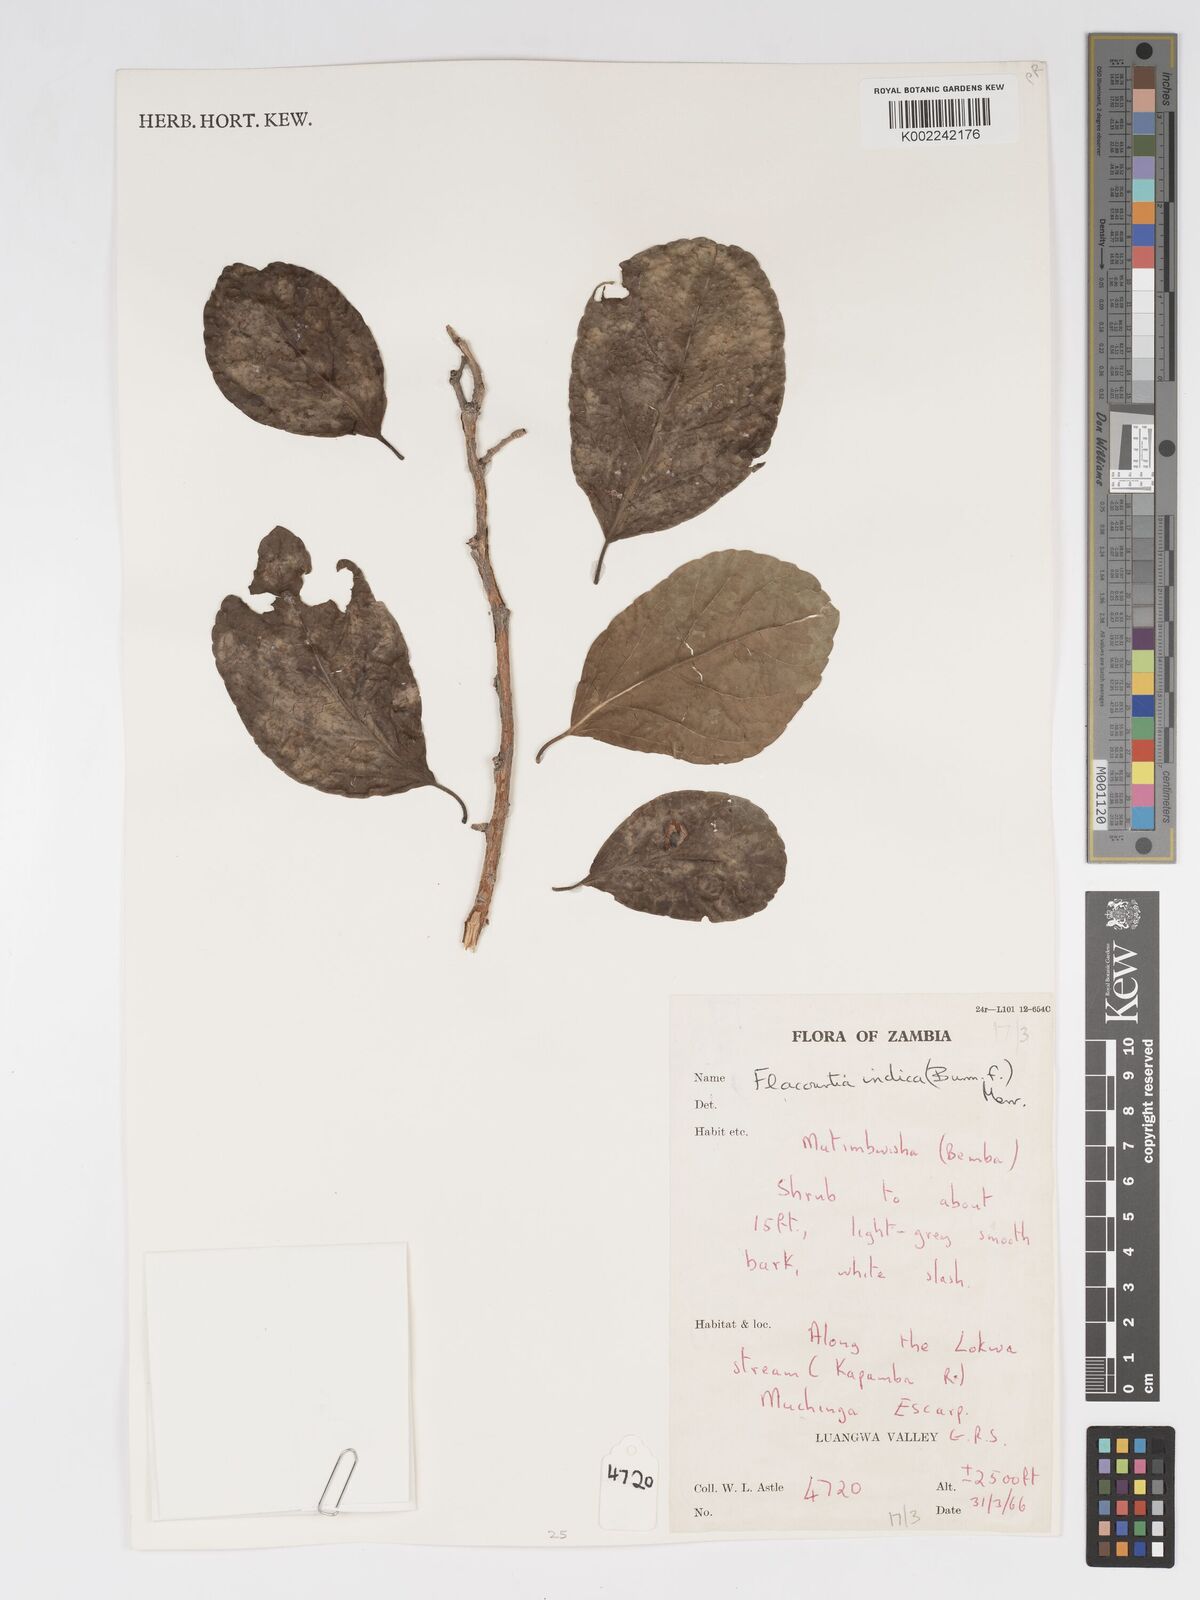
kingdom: Plantae
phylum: Tracheophyta
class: Magnoliopsida
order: Malpighiales
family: Salicaceae
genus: Flacourtia
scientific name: Flacourtia indica
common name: Governor's plum
